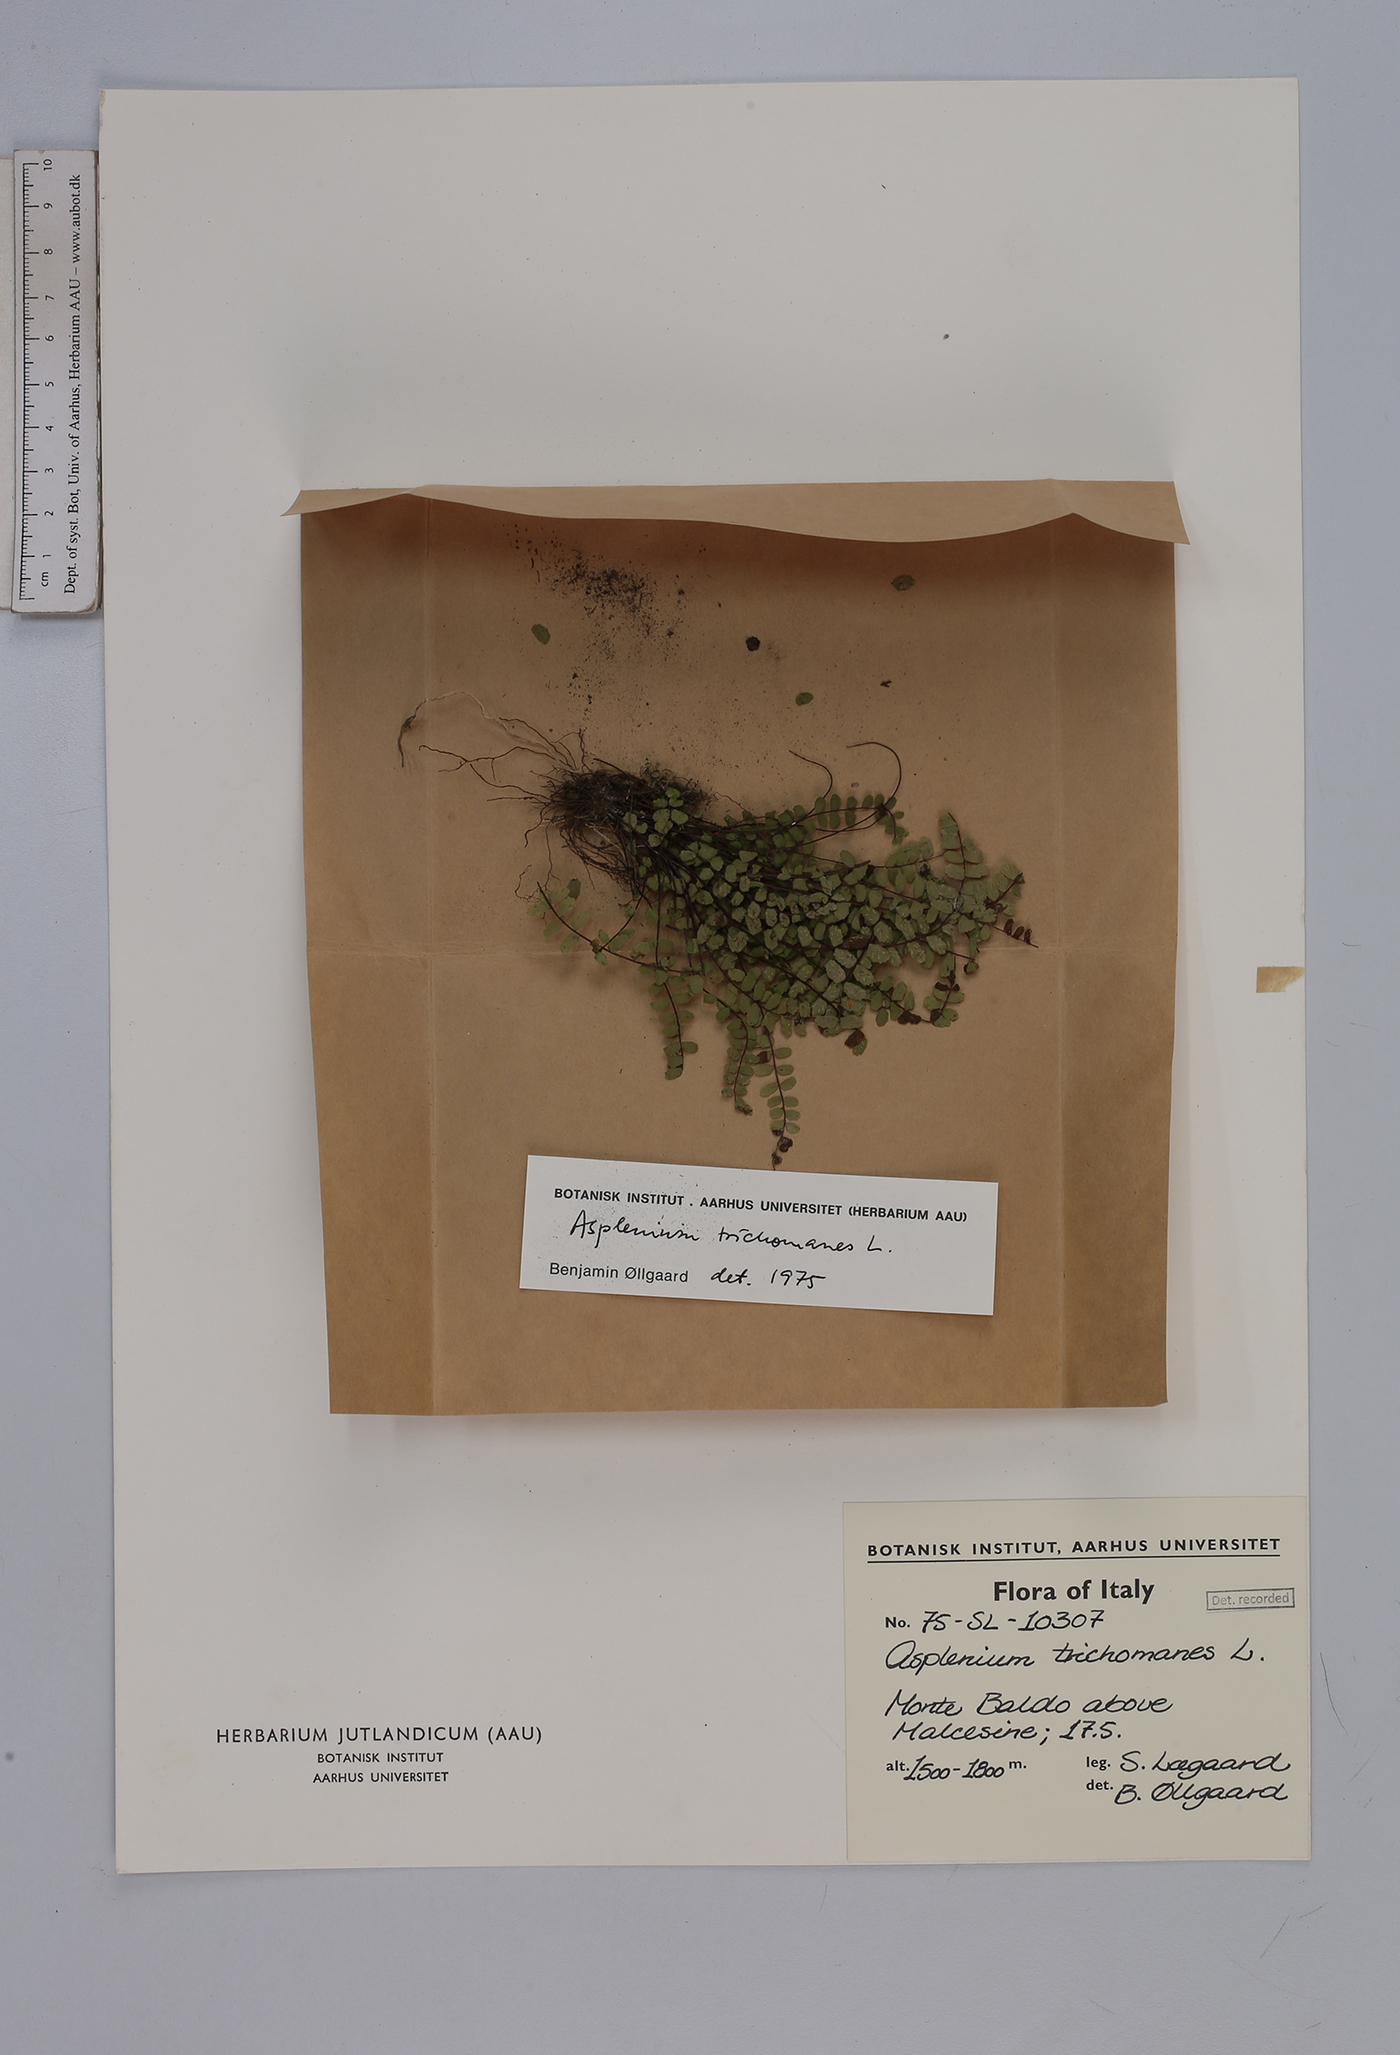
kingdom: Plantae
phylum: Tracheophyta
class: Polypodiopsida
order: Polypodiales
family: Aspleniaceae
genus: Asplenium
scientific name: Asplenium trichomanes
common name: Maidenhair spleenwort
